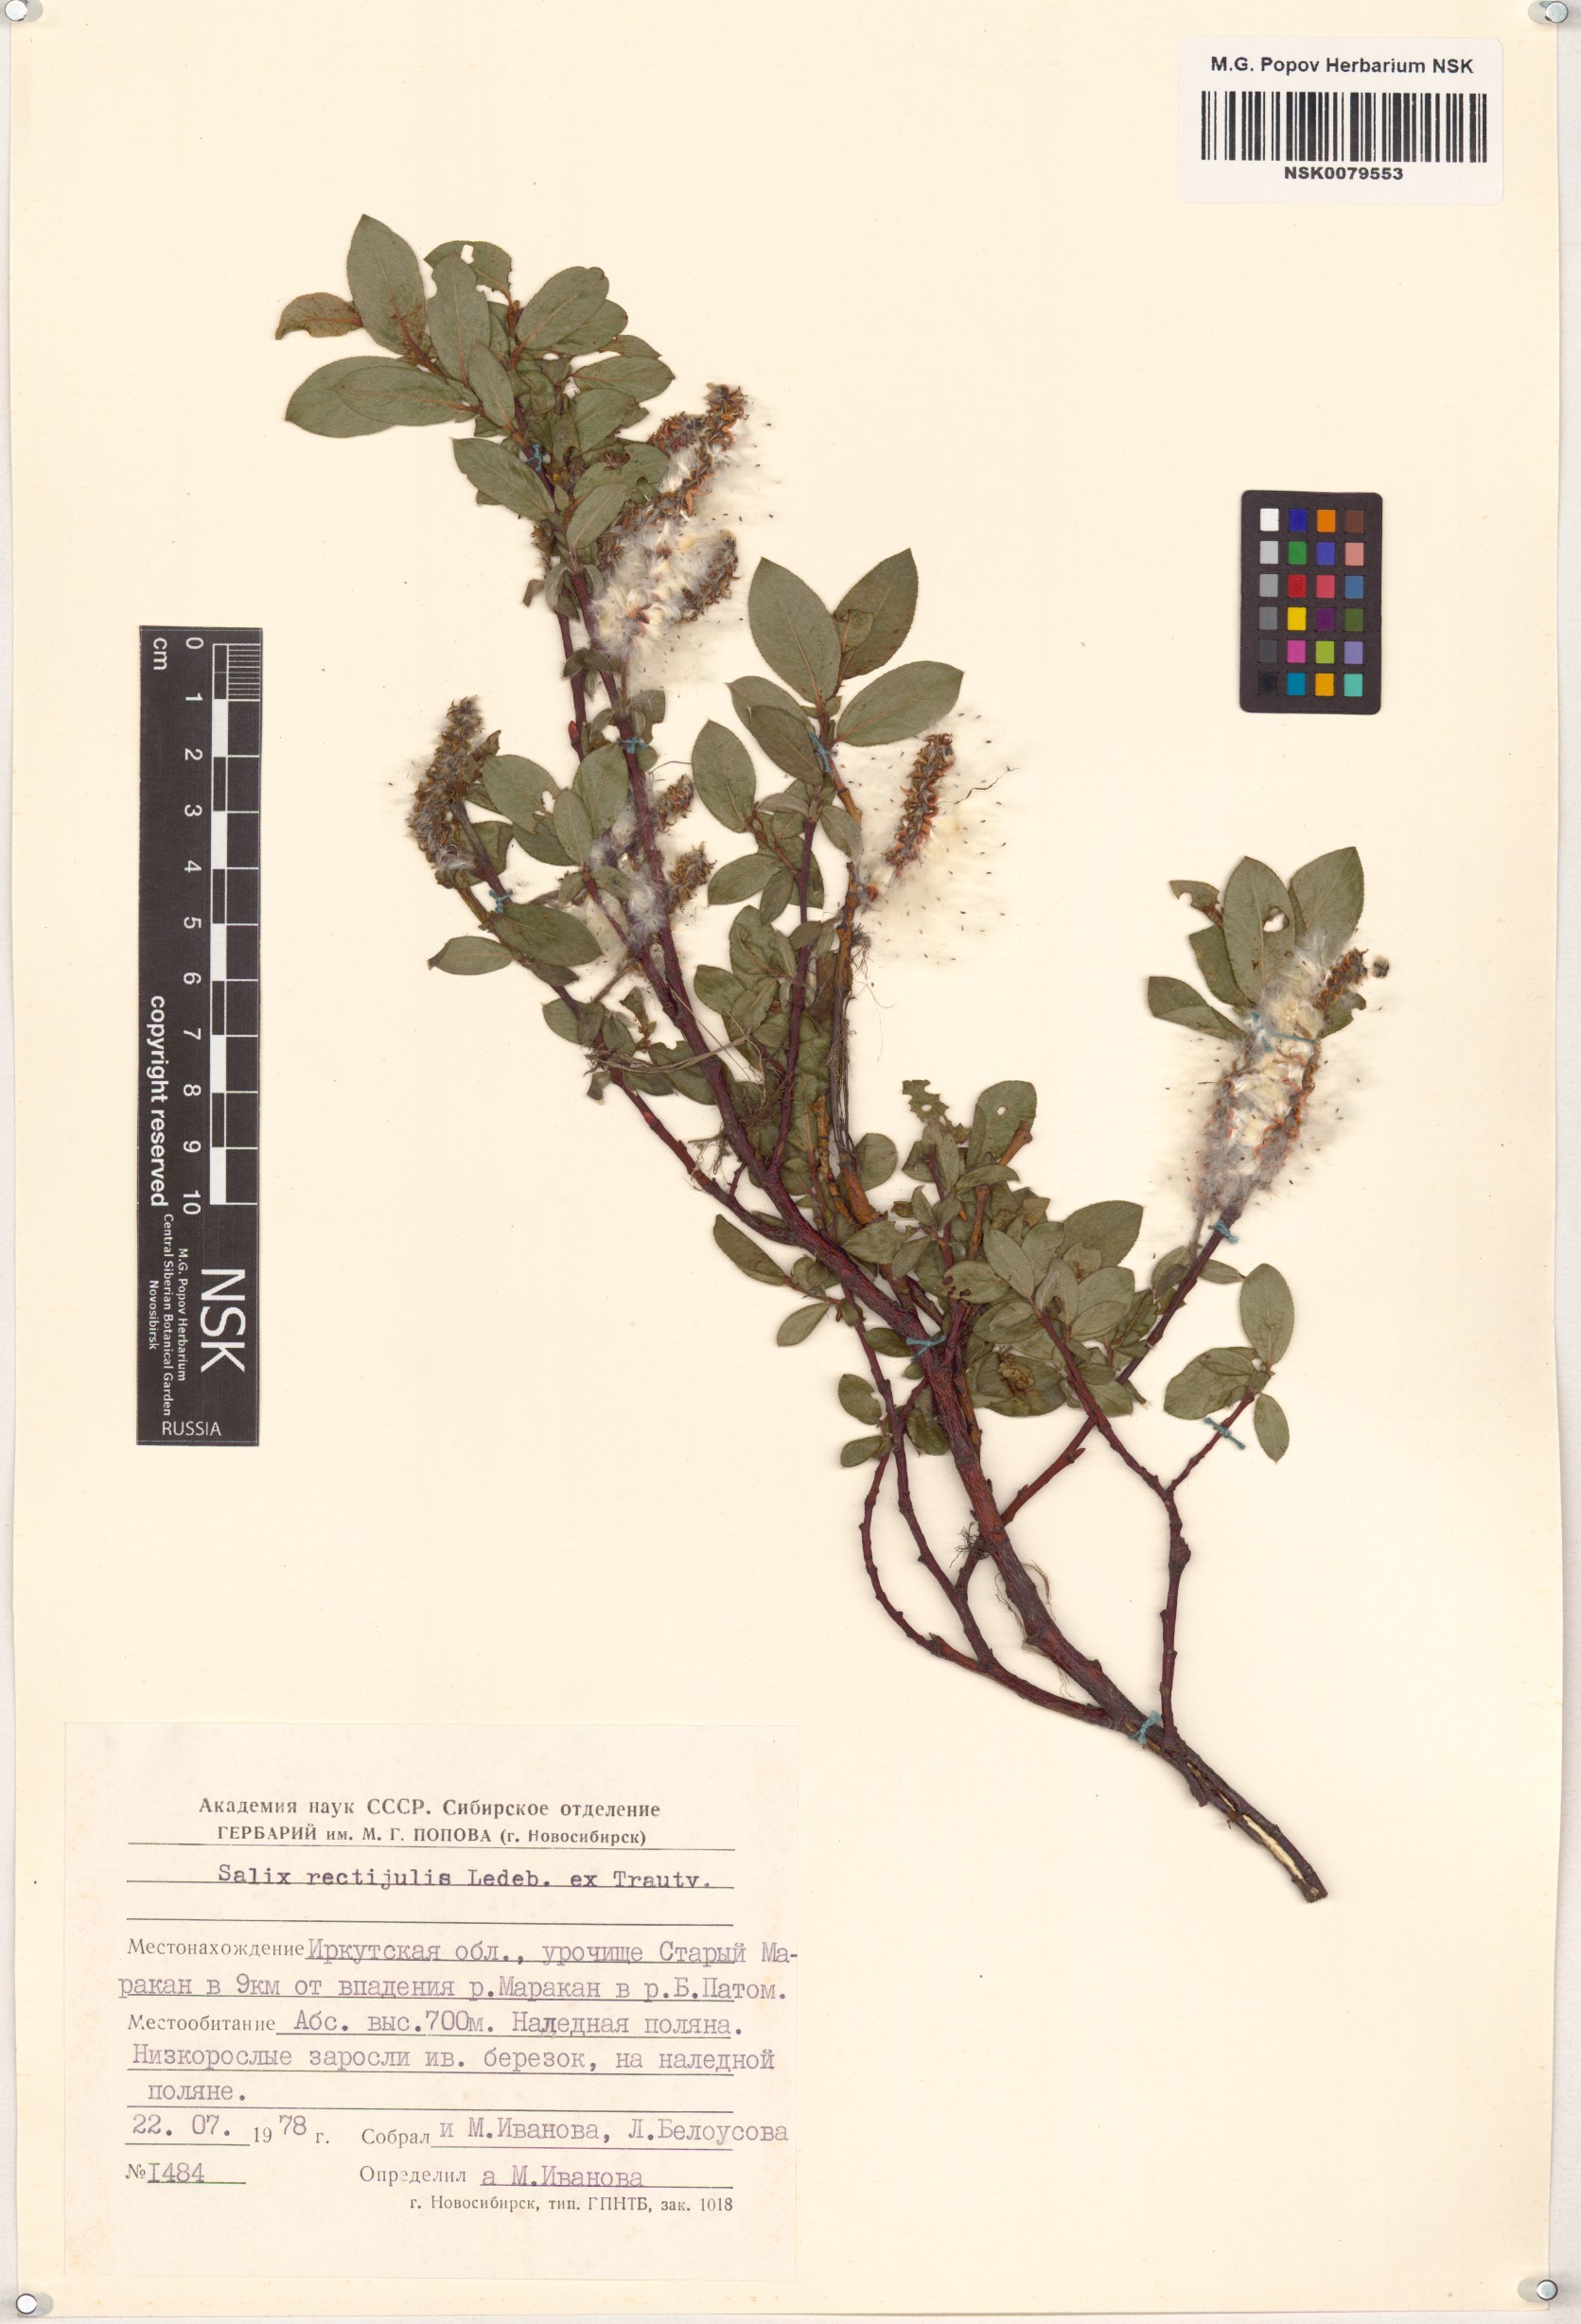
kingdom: Plantae
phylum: Tracheophyta
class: Magnoliopsida
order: Malpighiales
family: Salicaceae
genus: Salix
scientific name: Salix rectijulis
